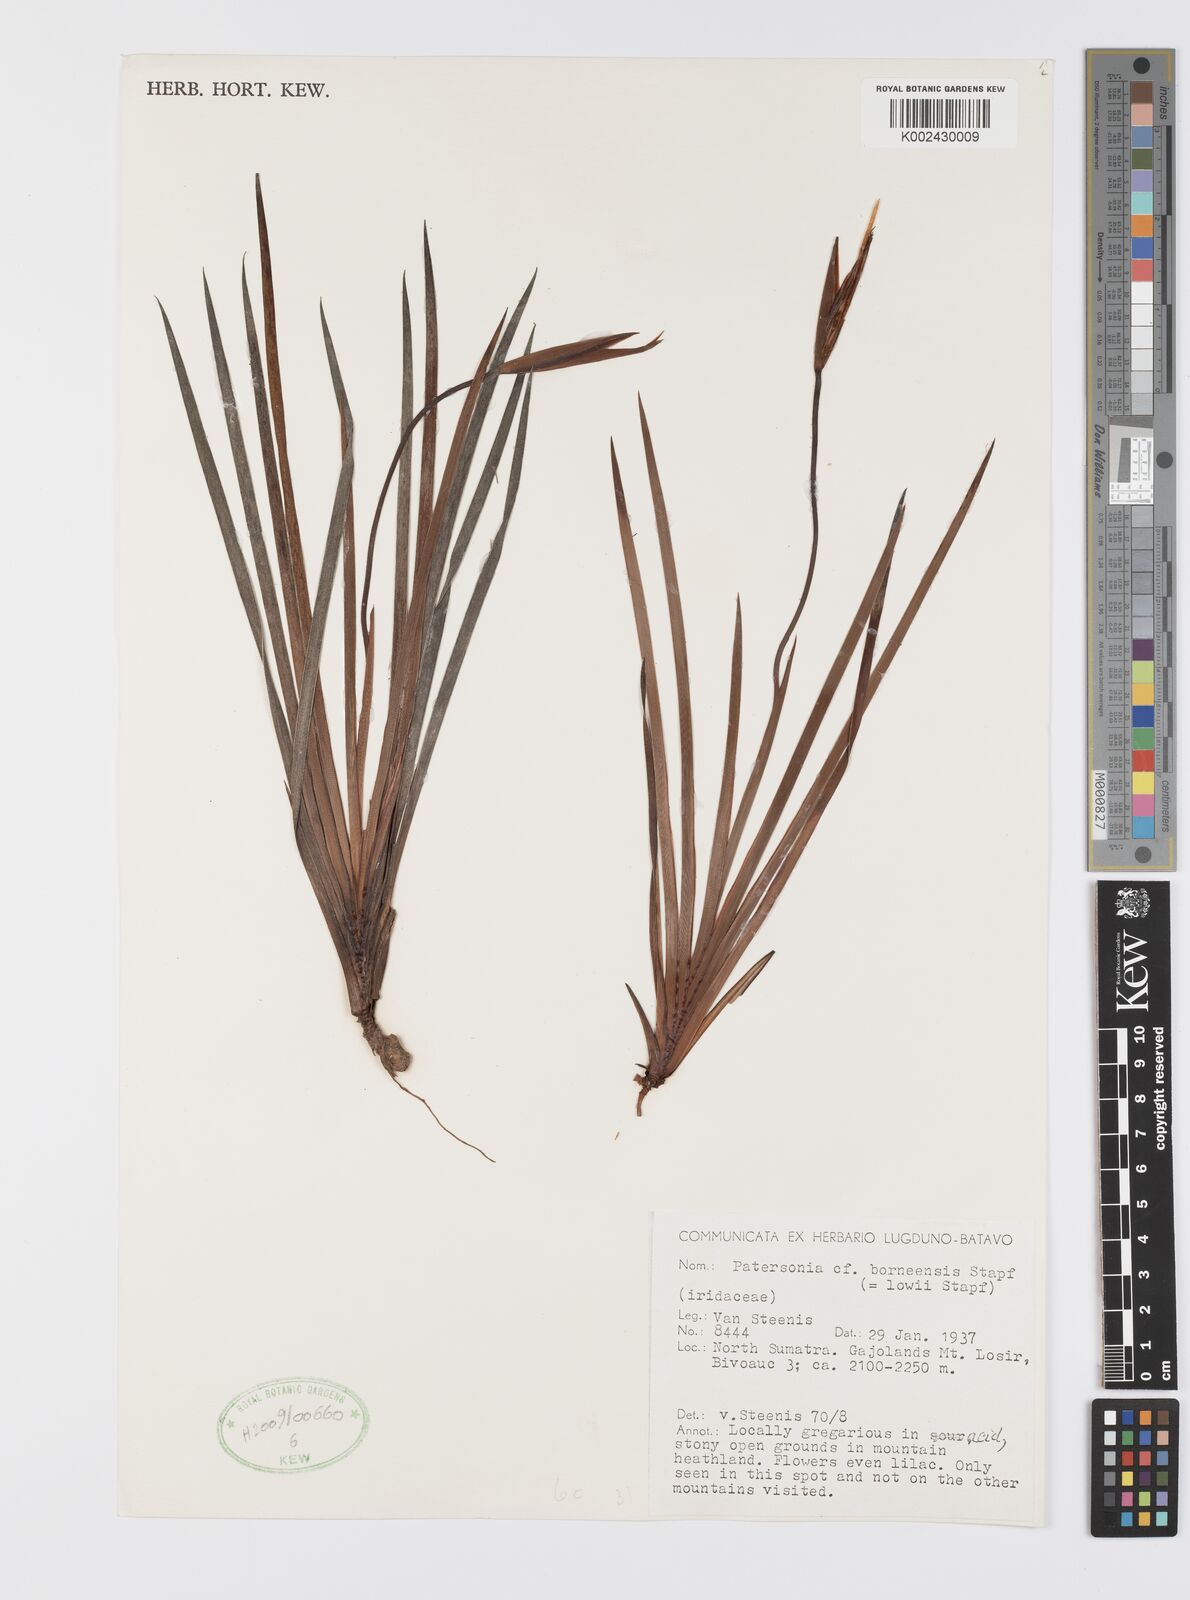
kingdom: Plantae
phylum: Tracheophyta
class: Liliopsida
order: Asparagales
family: Iridaceae
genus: Patersonia
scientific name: Patersonia lowii
